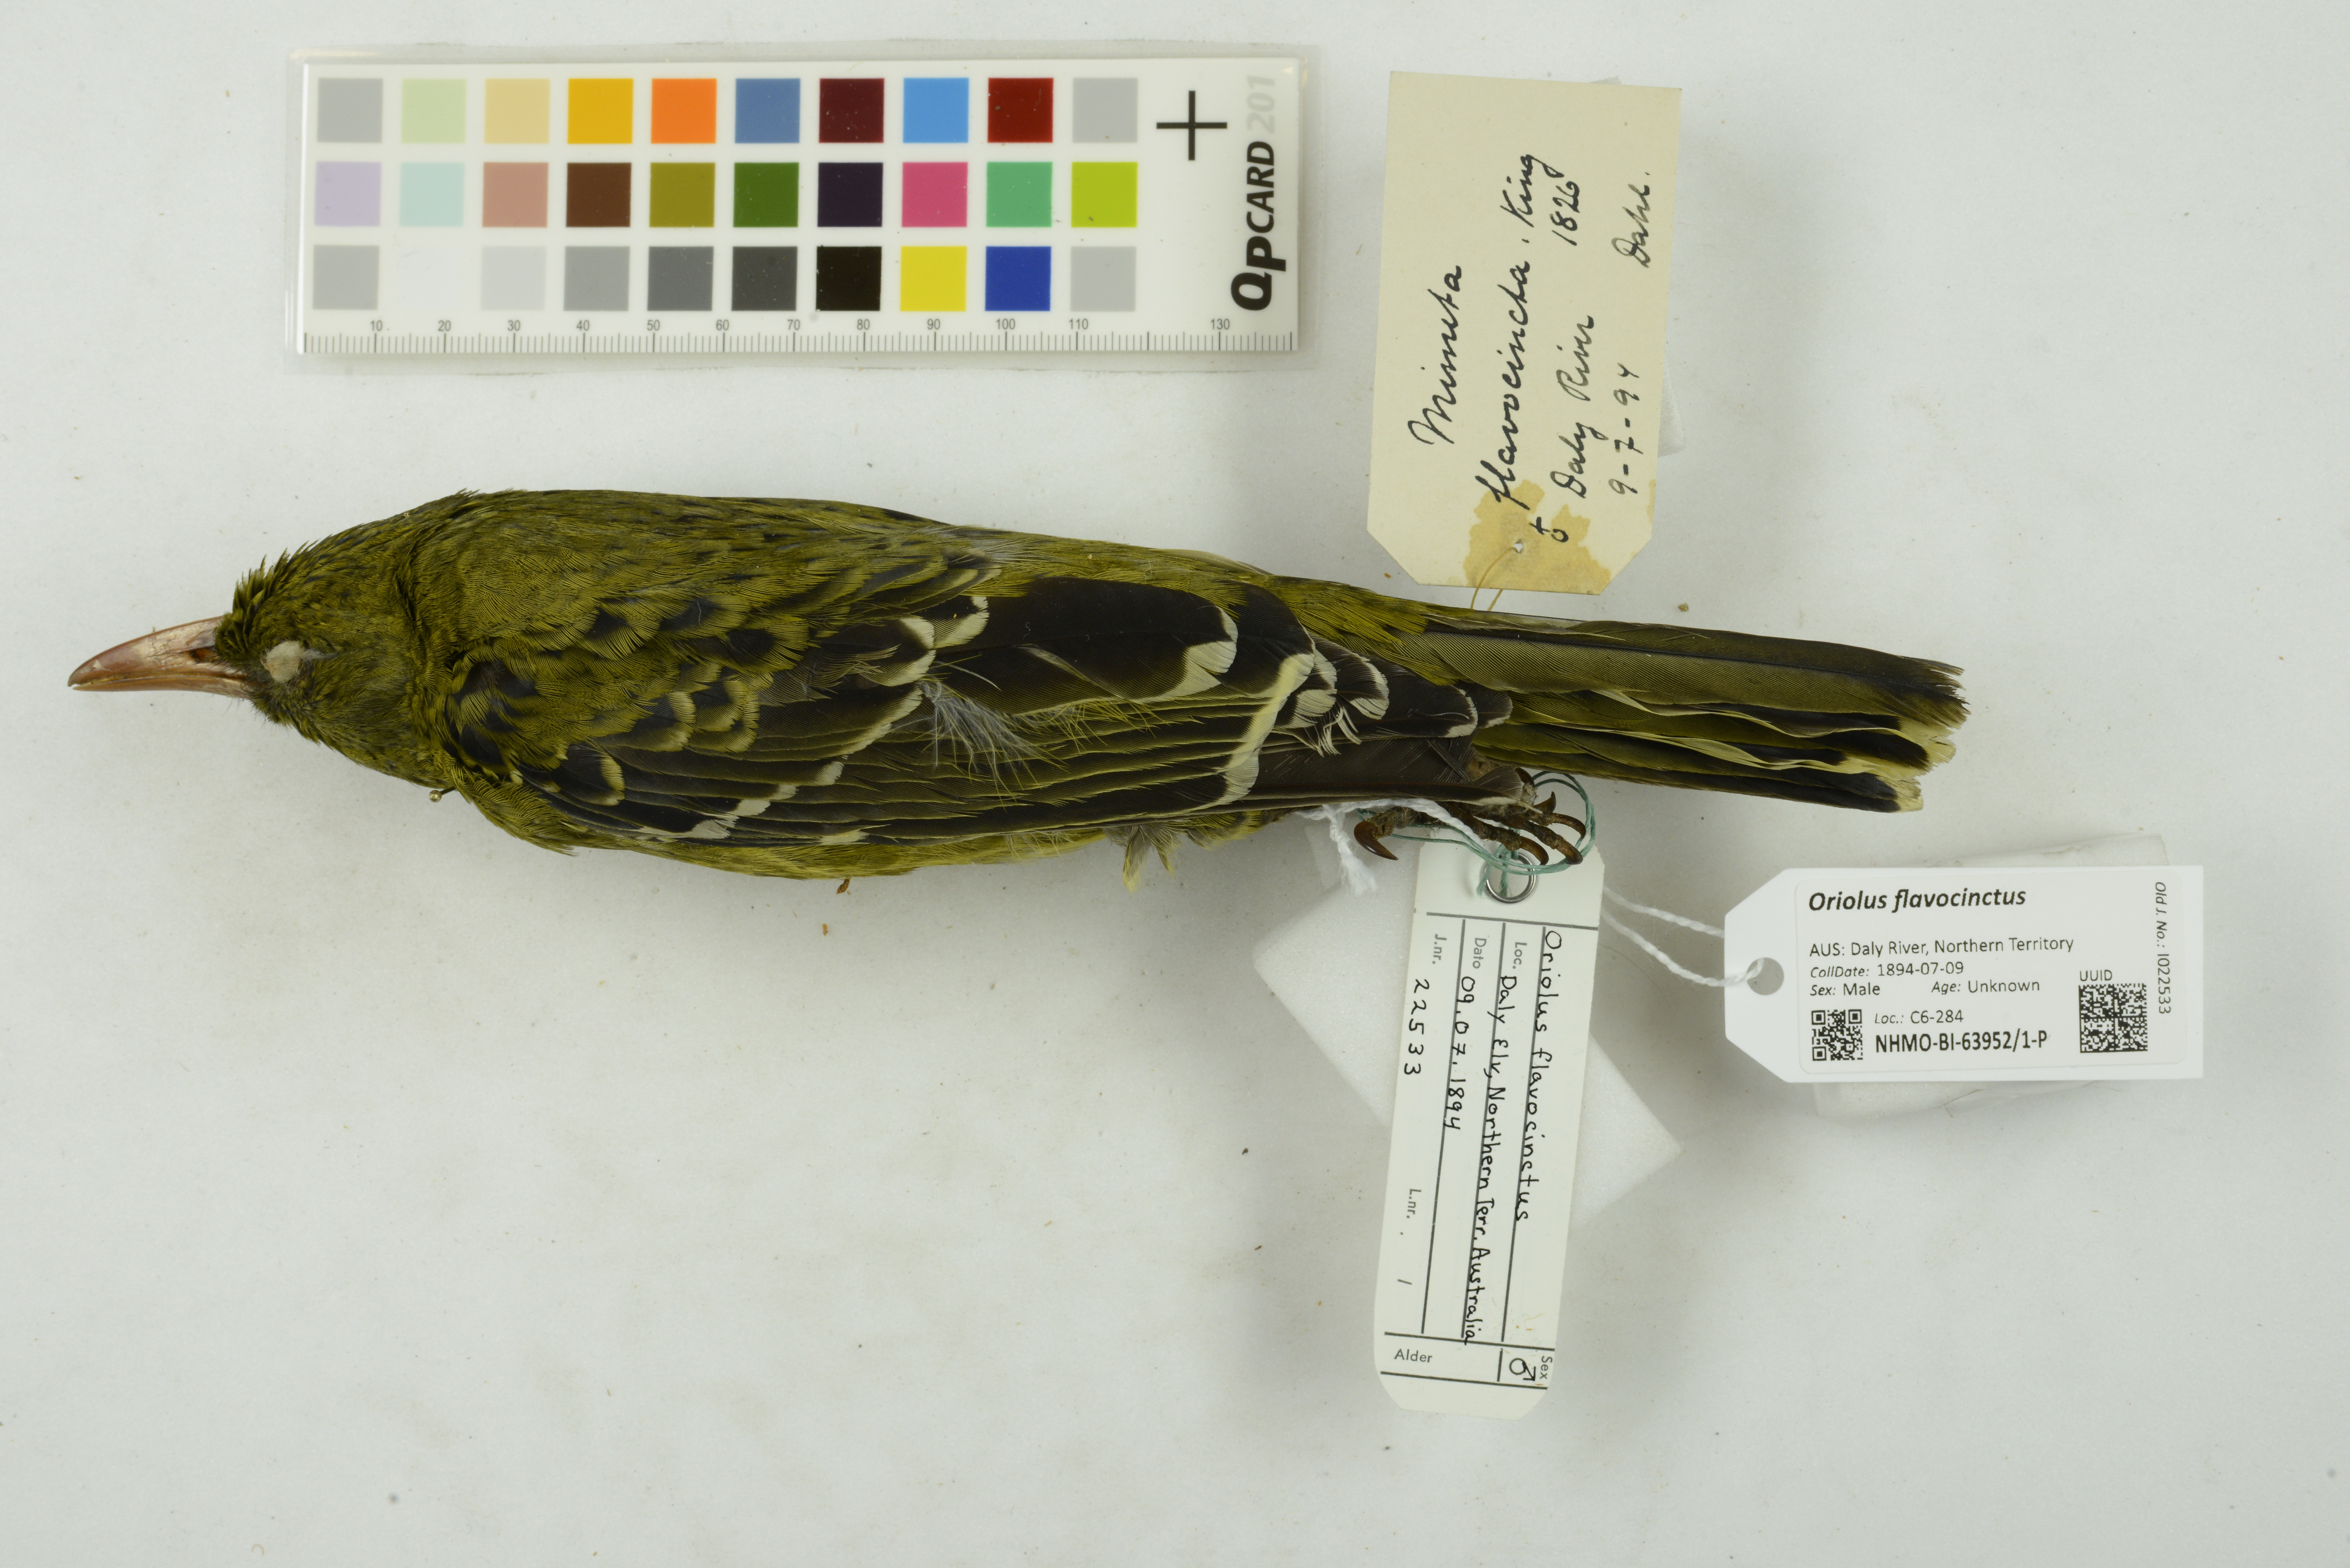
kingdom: Animalia
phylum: Chordata
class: Aves
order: Passeriformes
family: Oriolidae
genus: Oriolus
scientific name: Oriolus flavocinctus
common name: Green oriole
